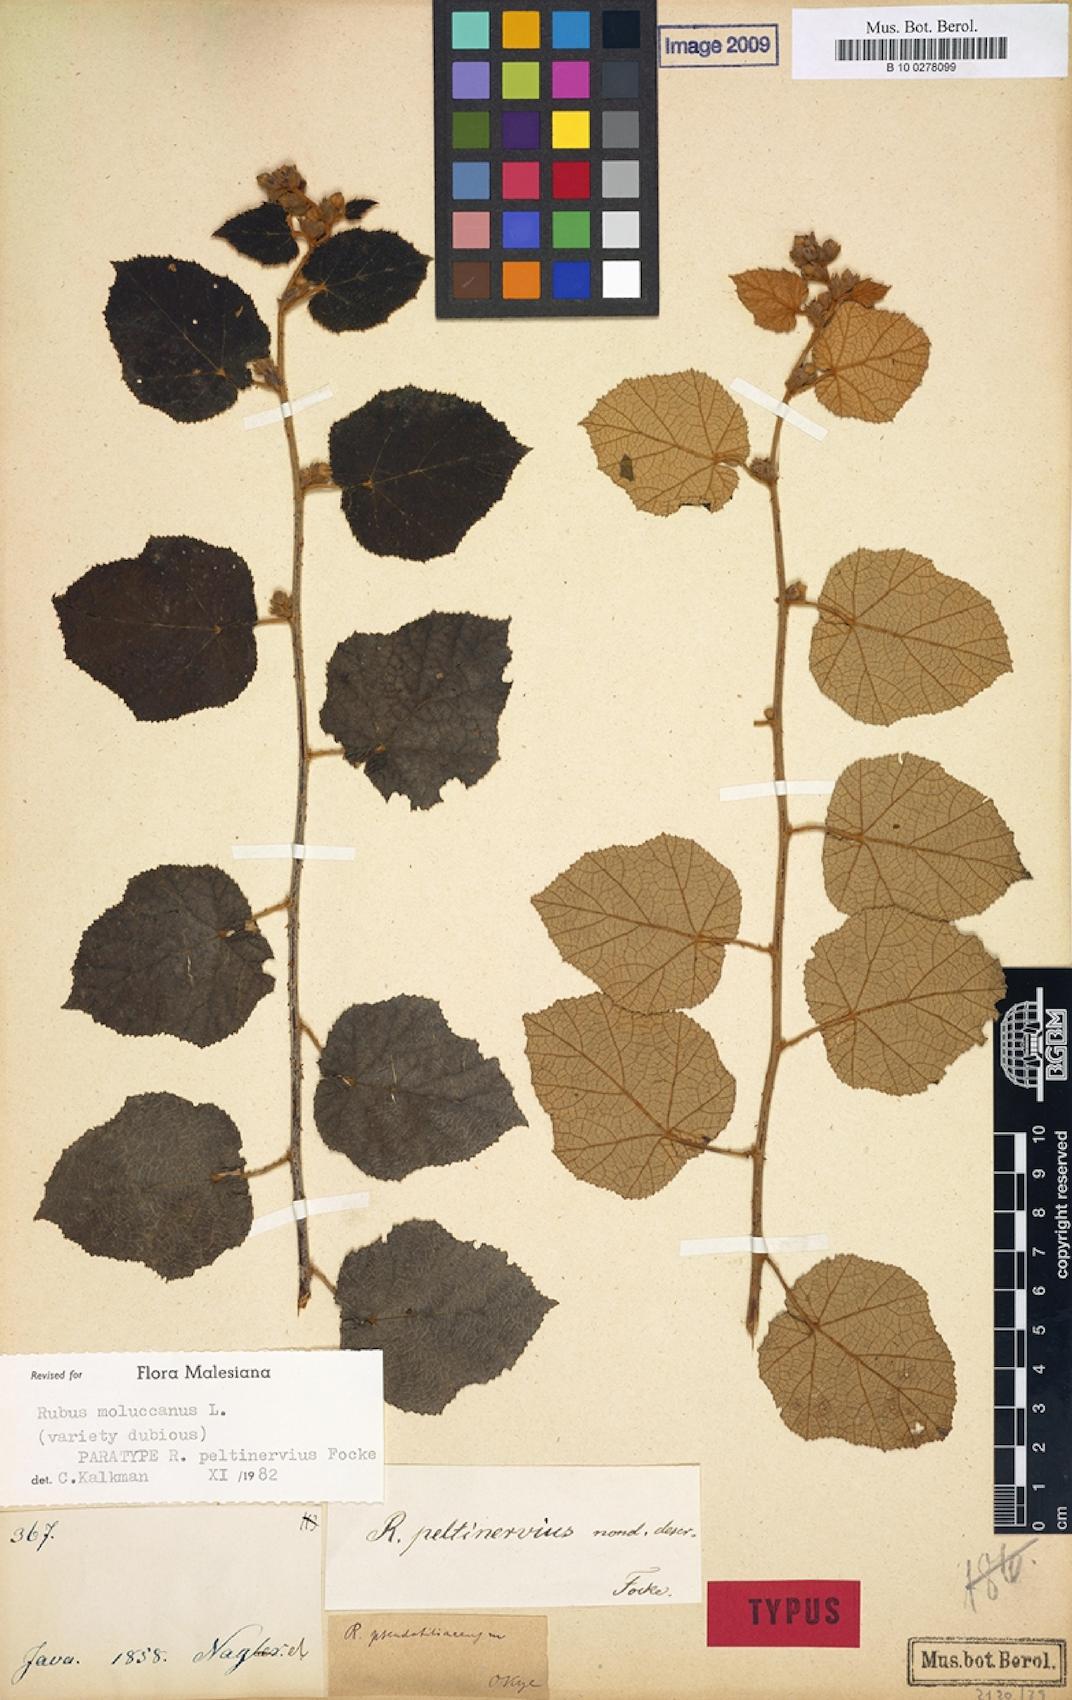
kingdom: Plantae
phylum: Tracheophyta
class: Magnoliopsida
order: Rosales
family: Rosaceae
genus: Rubus
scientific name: Rubus moluccanus
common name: Wild raspberry
